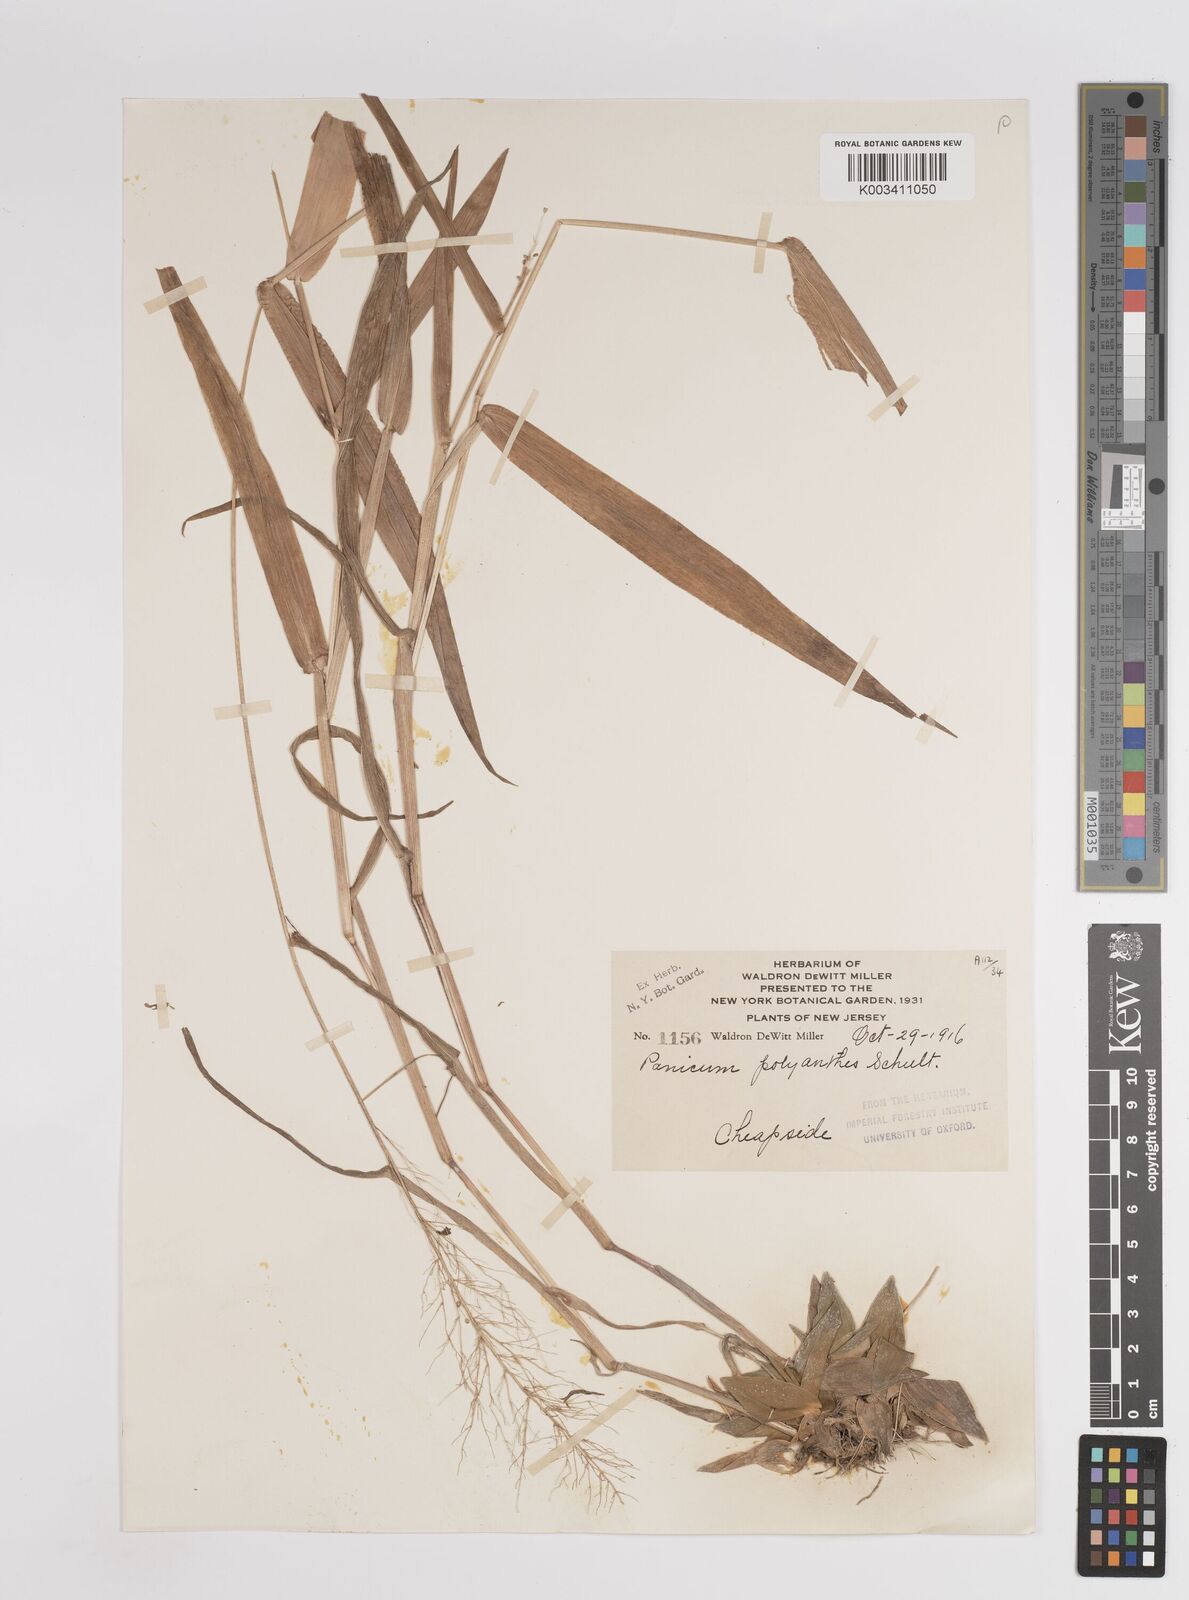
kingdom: Plantae
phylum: Tracheophyta
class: Liliopsida
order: Poales
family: Poaceae
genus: Dichanthelium
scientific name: Dichanthelium polyanthes
